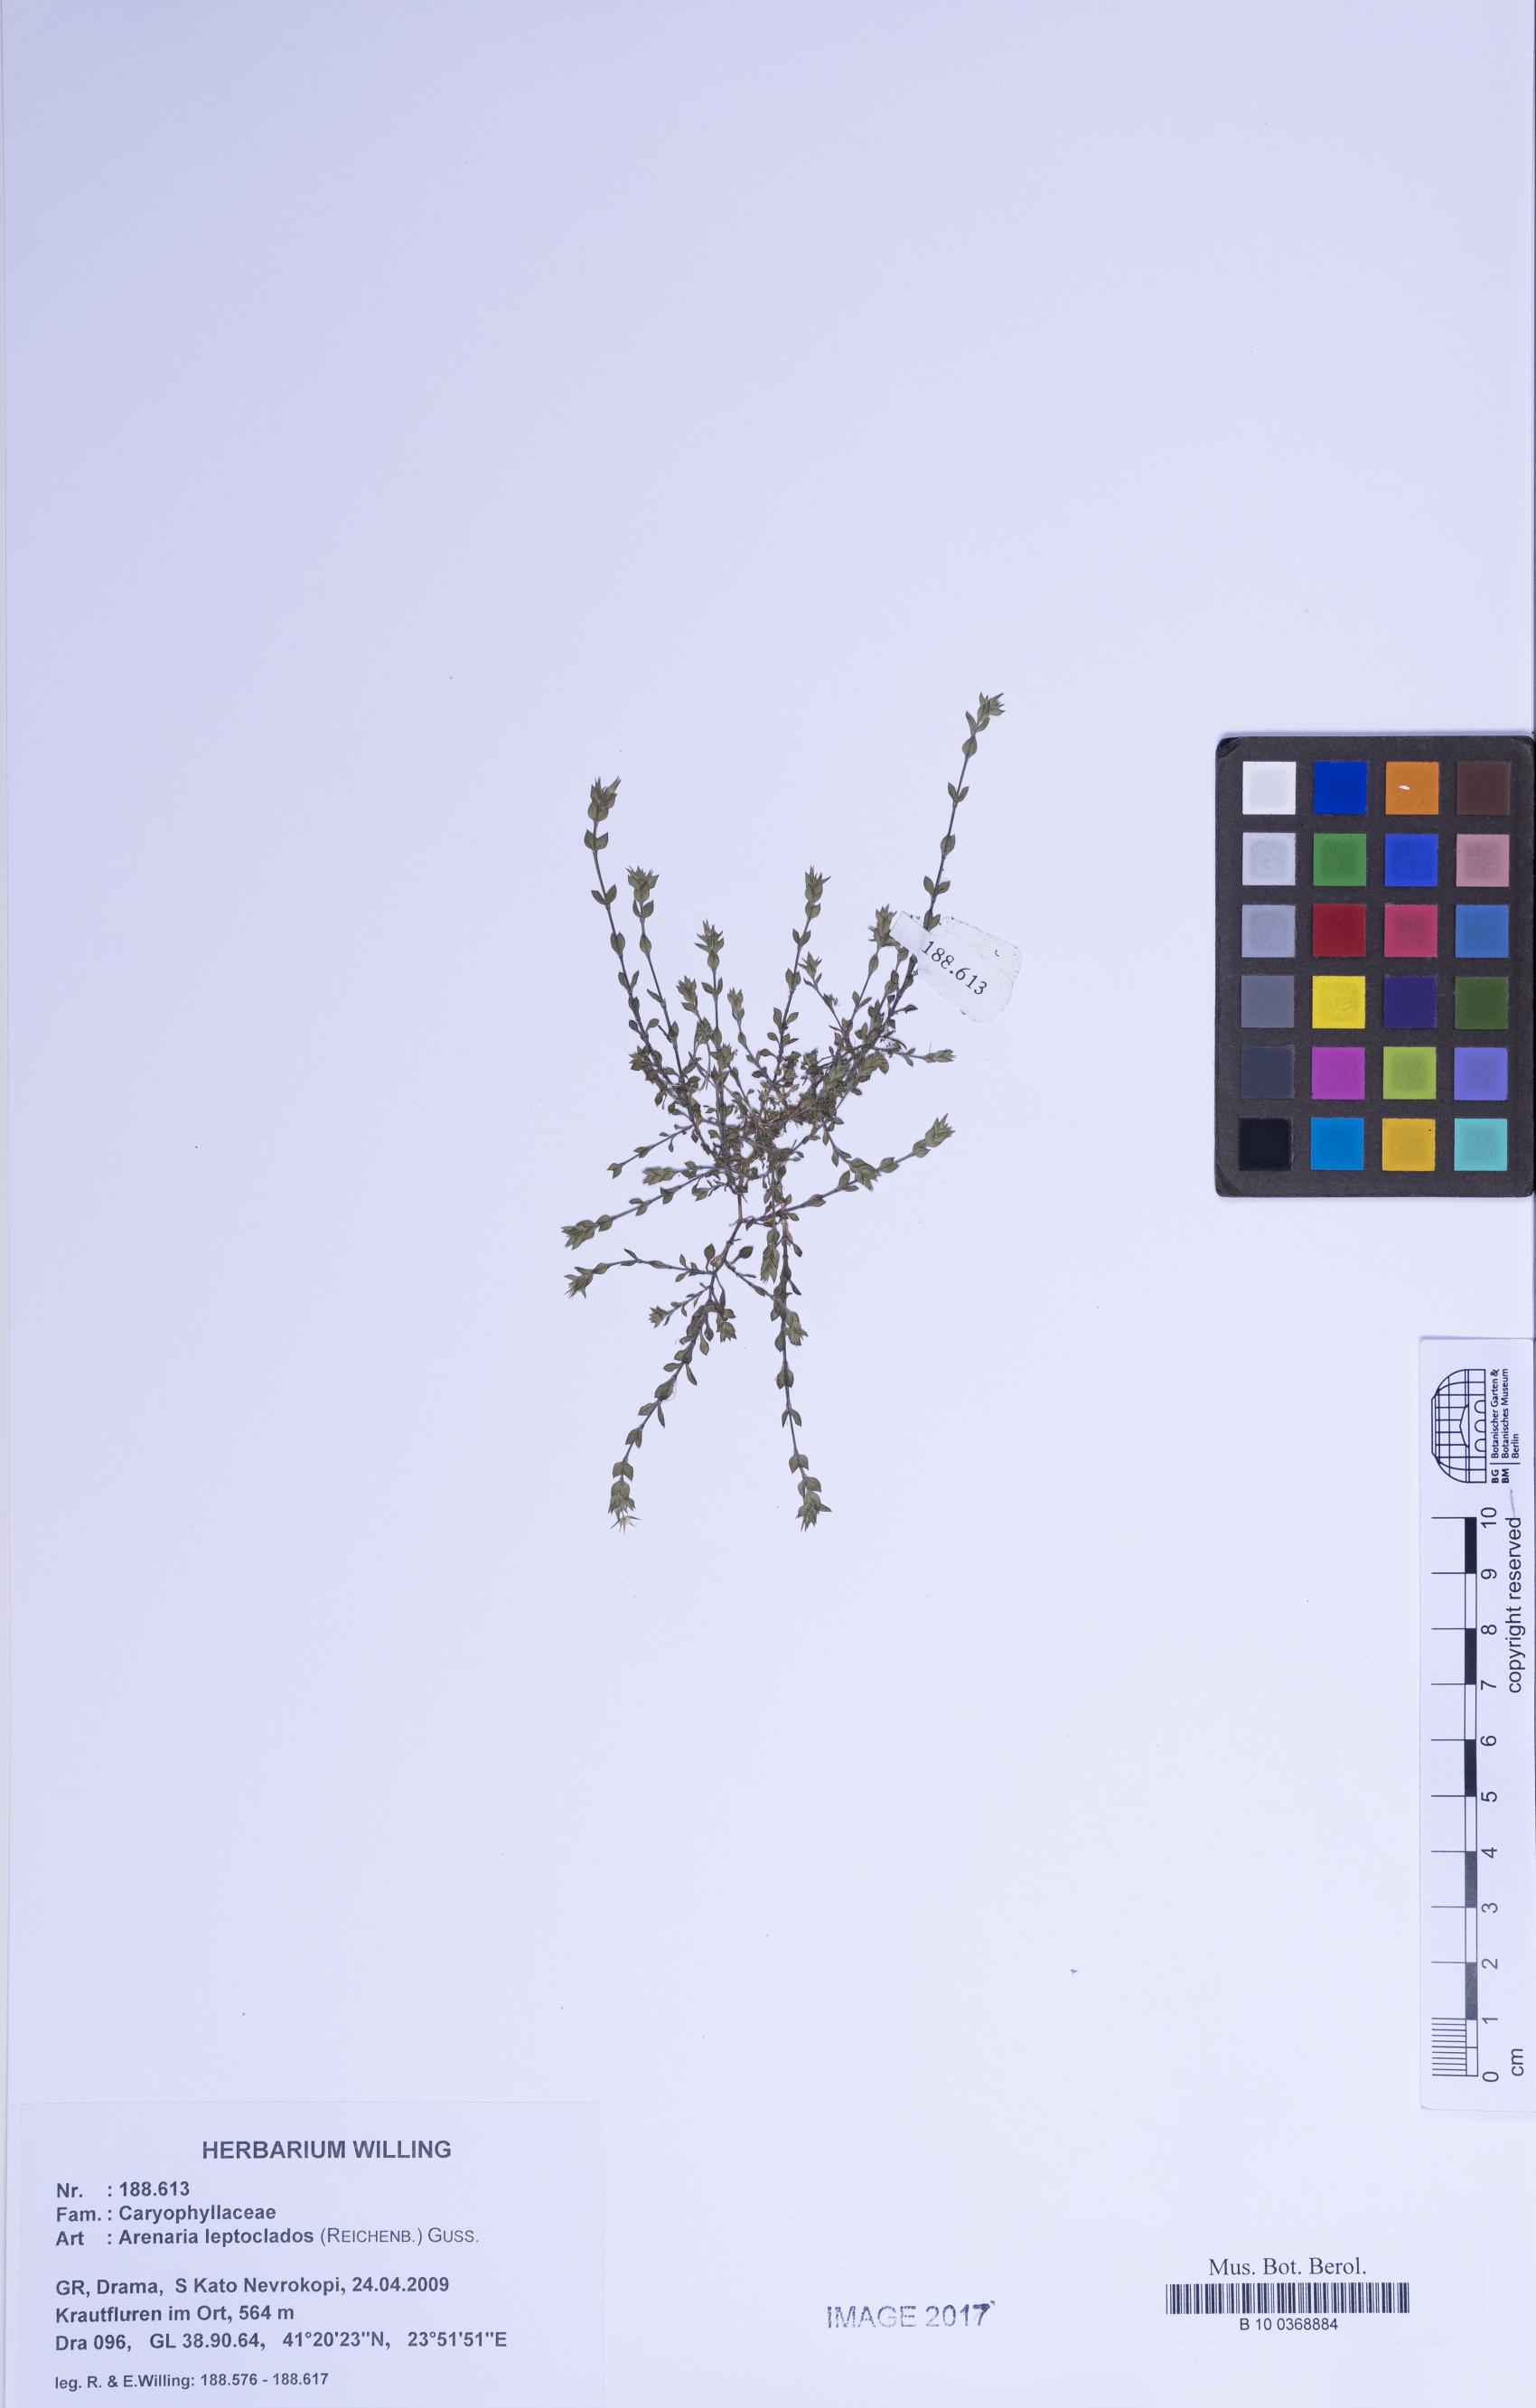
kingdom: Plantae
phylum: Tracheophyta
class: Magnoliopsida
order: Caryophyllales
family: Caryophyllaceae
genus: Arenaria
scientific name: Arenaria leptoclados
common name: Thyme-leaved sandwort
